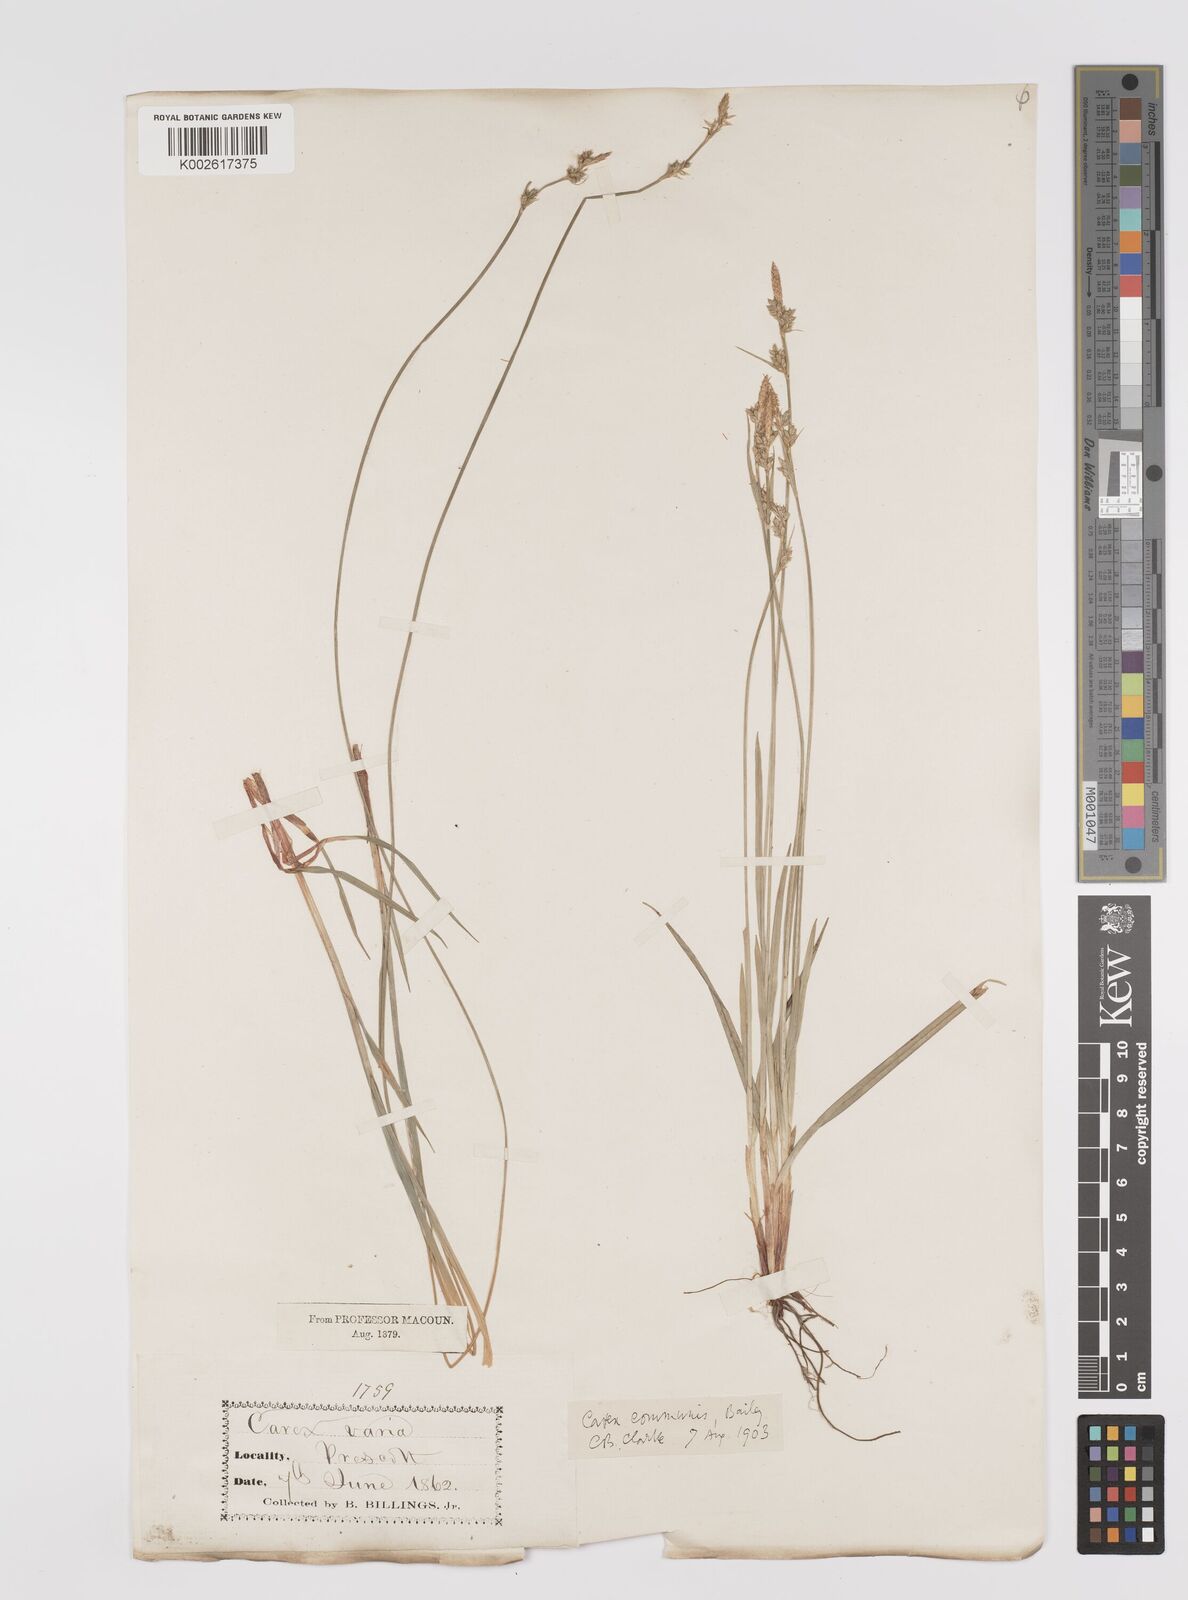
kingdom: Plantae
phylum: Tracheophyta
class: Liliopsida
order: Poales
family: Cyperaceae
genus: Carex
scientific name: Carex communis
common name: Colonial oak sedge
